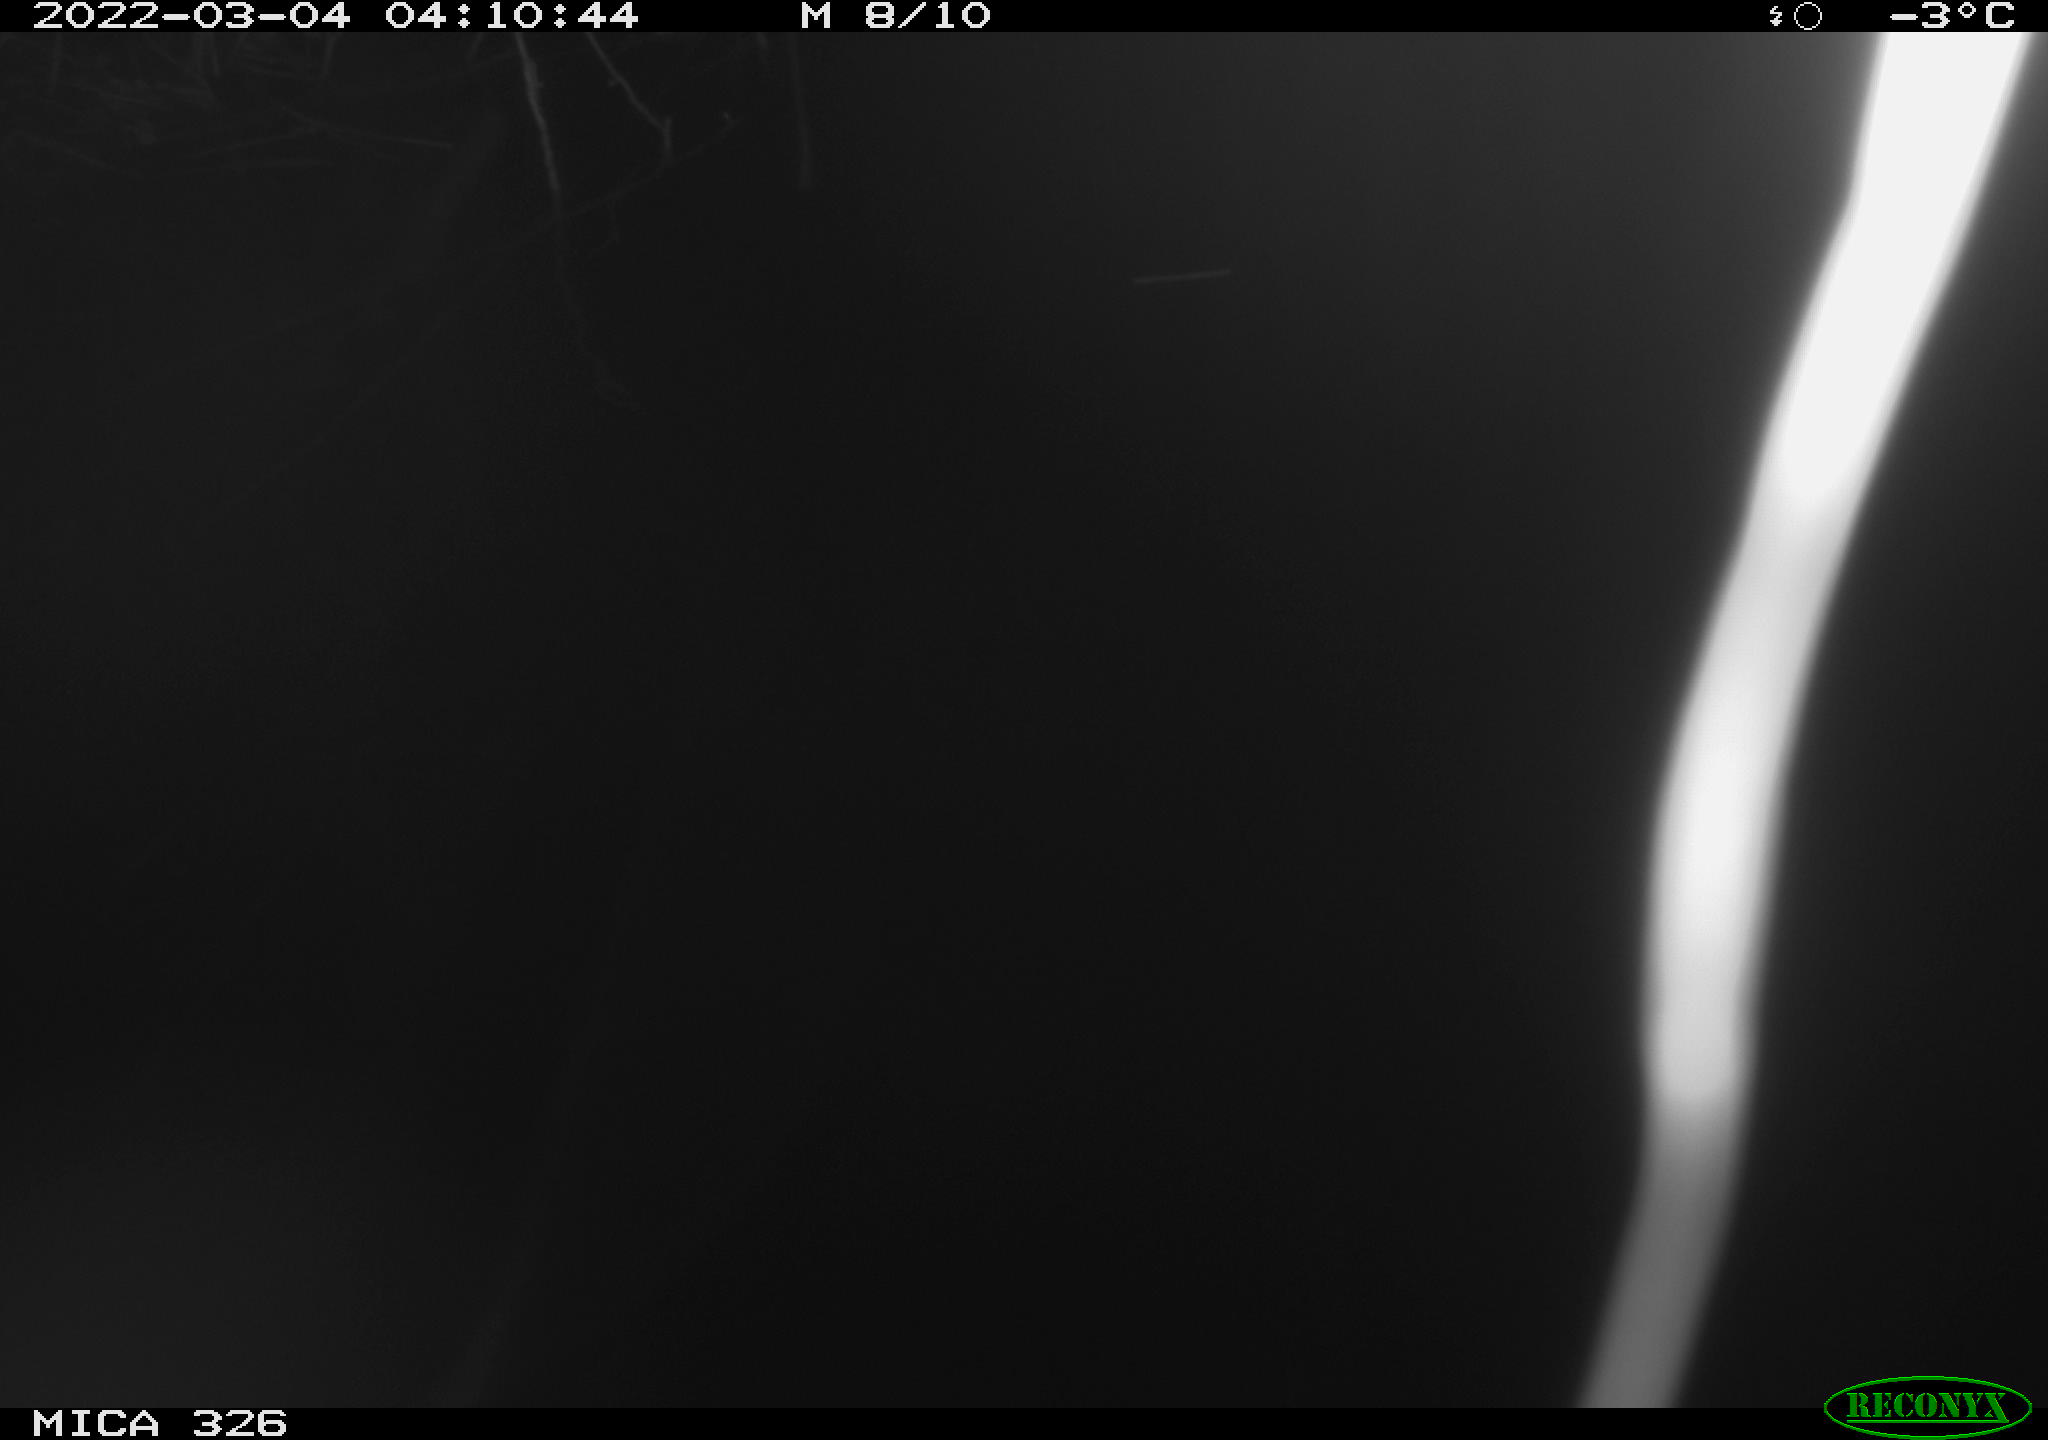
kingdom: Animalia
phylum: Chordata
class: Mammalia
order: Rodentia
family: Cricetidae
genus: Ondatra
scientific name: Ondatra zibethicus
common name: Muskrat
